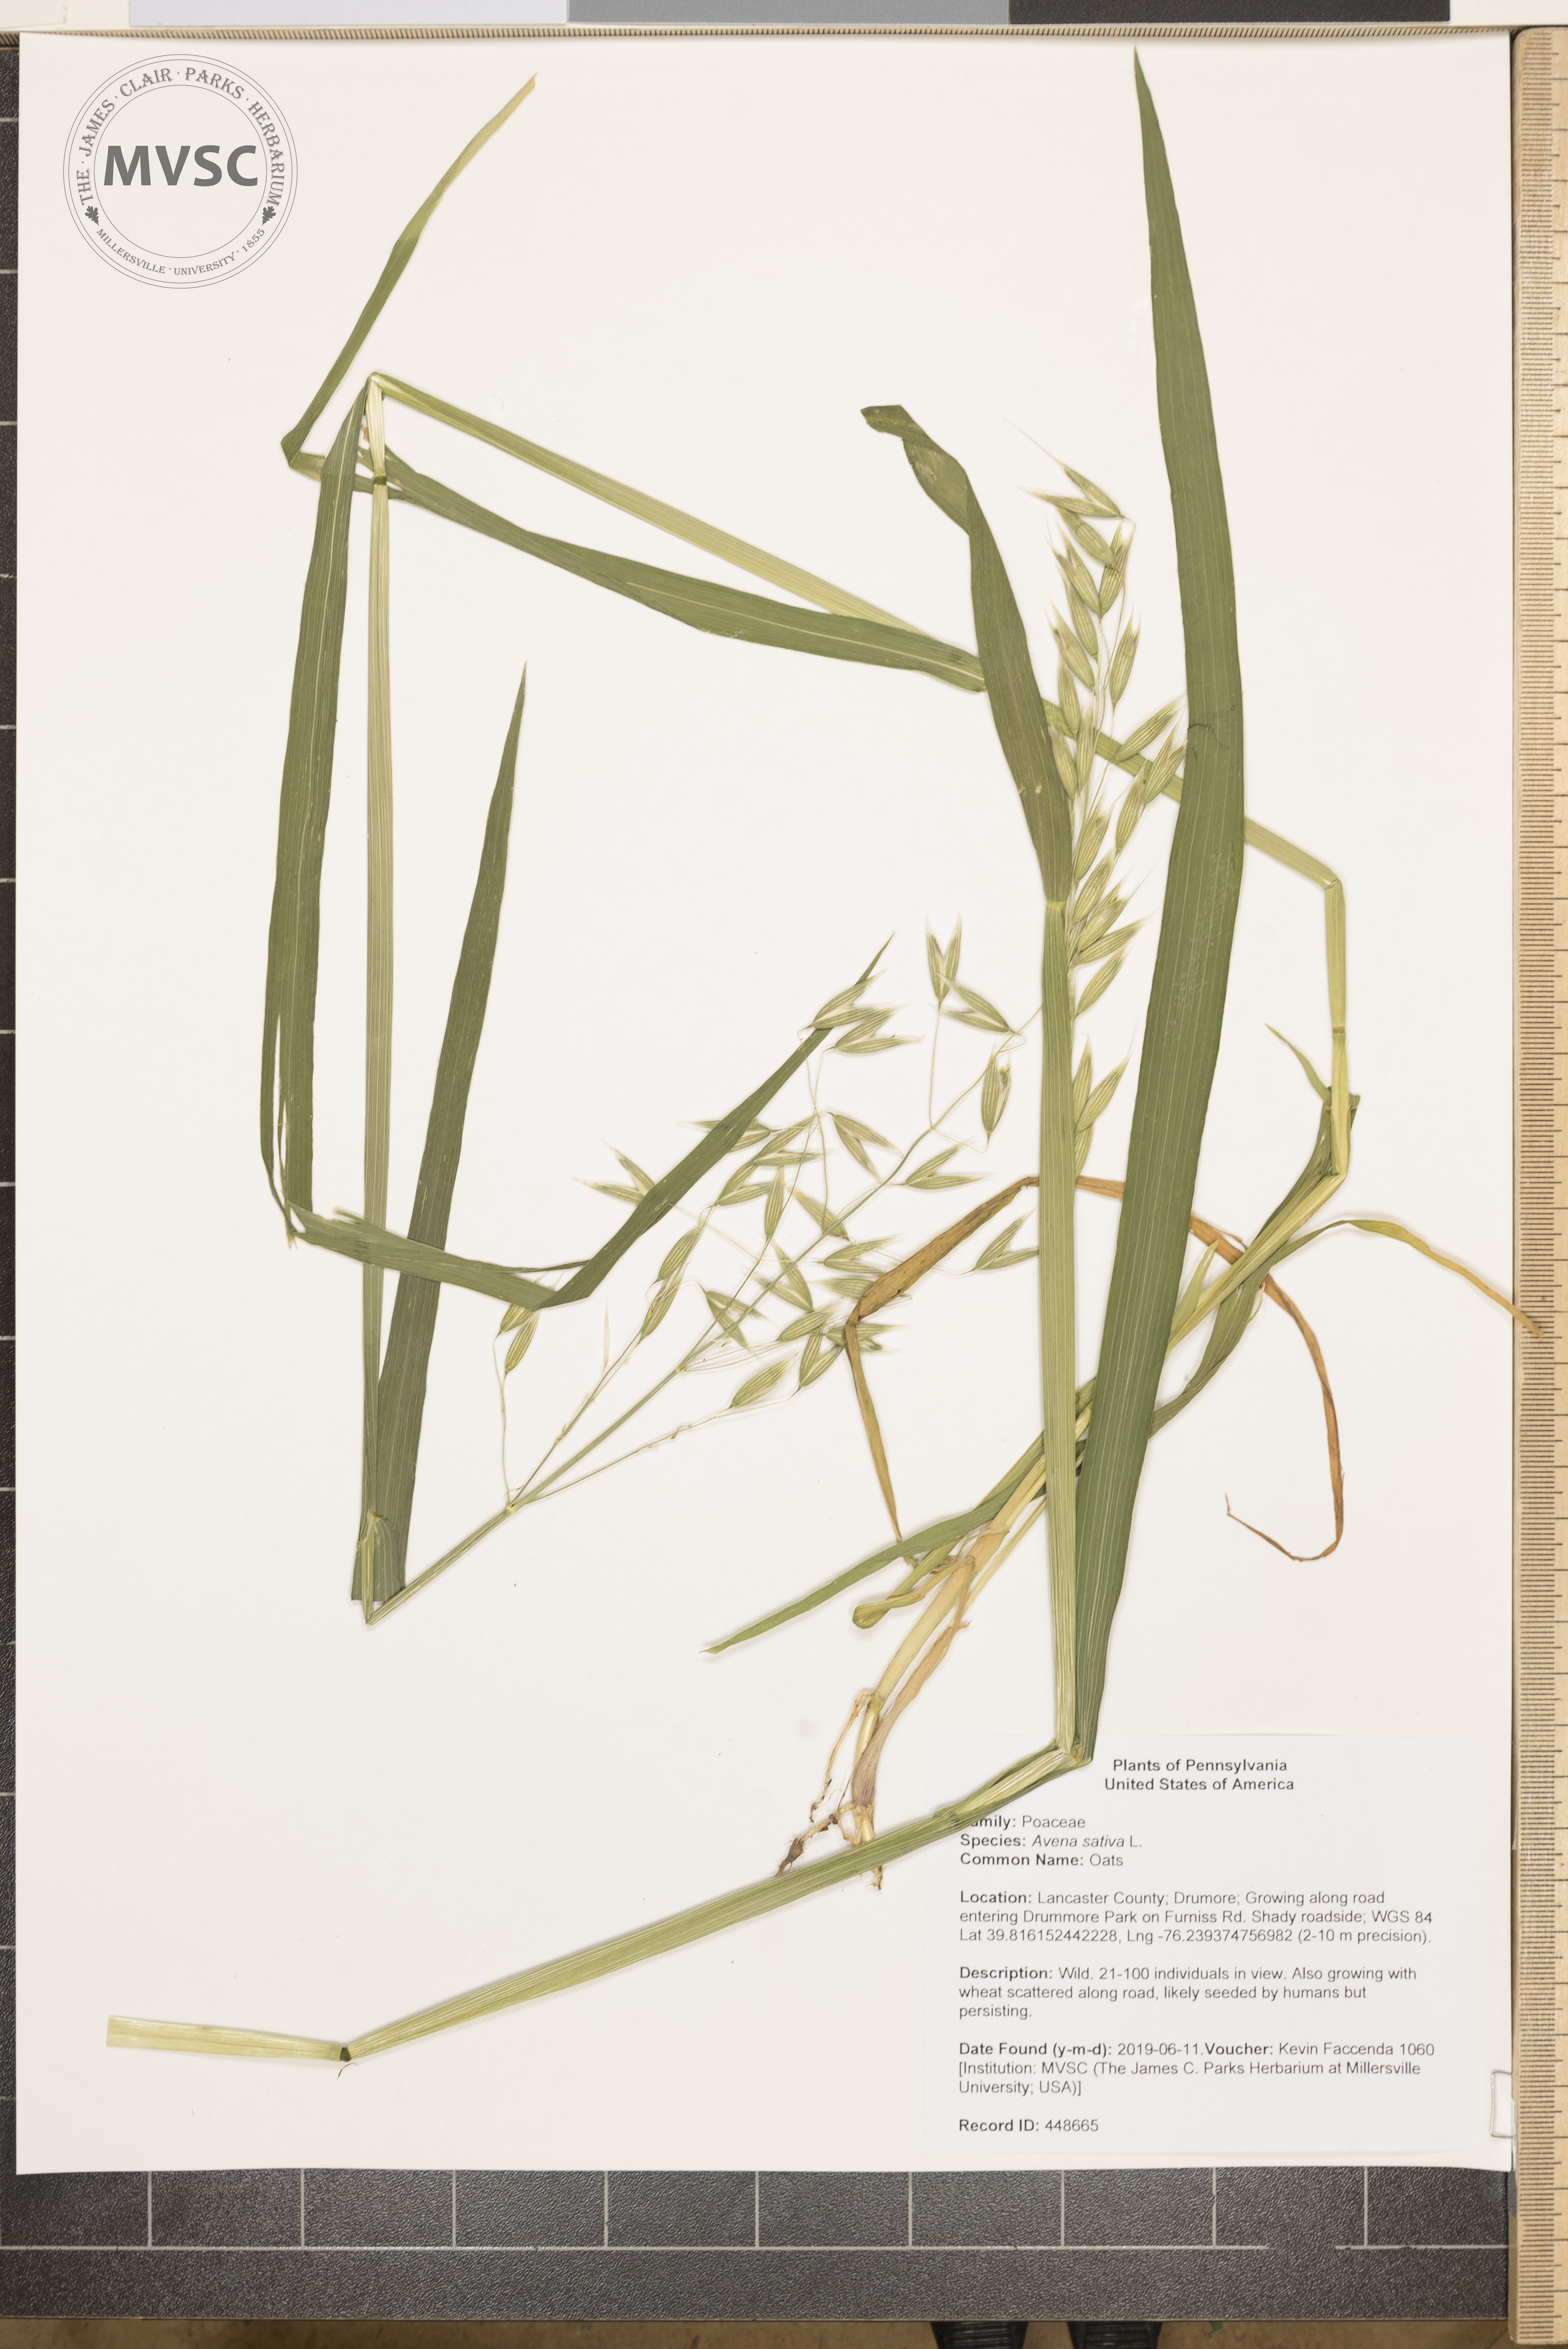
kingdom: Plantae
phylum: Tracheophyta
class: Liliopsida
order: Poales
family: Poaceae
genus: Avena
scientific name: Avena sativa
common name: Oats
